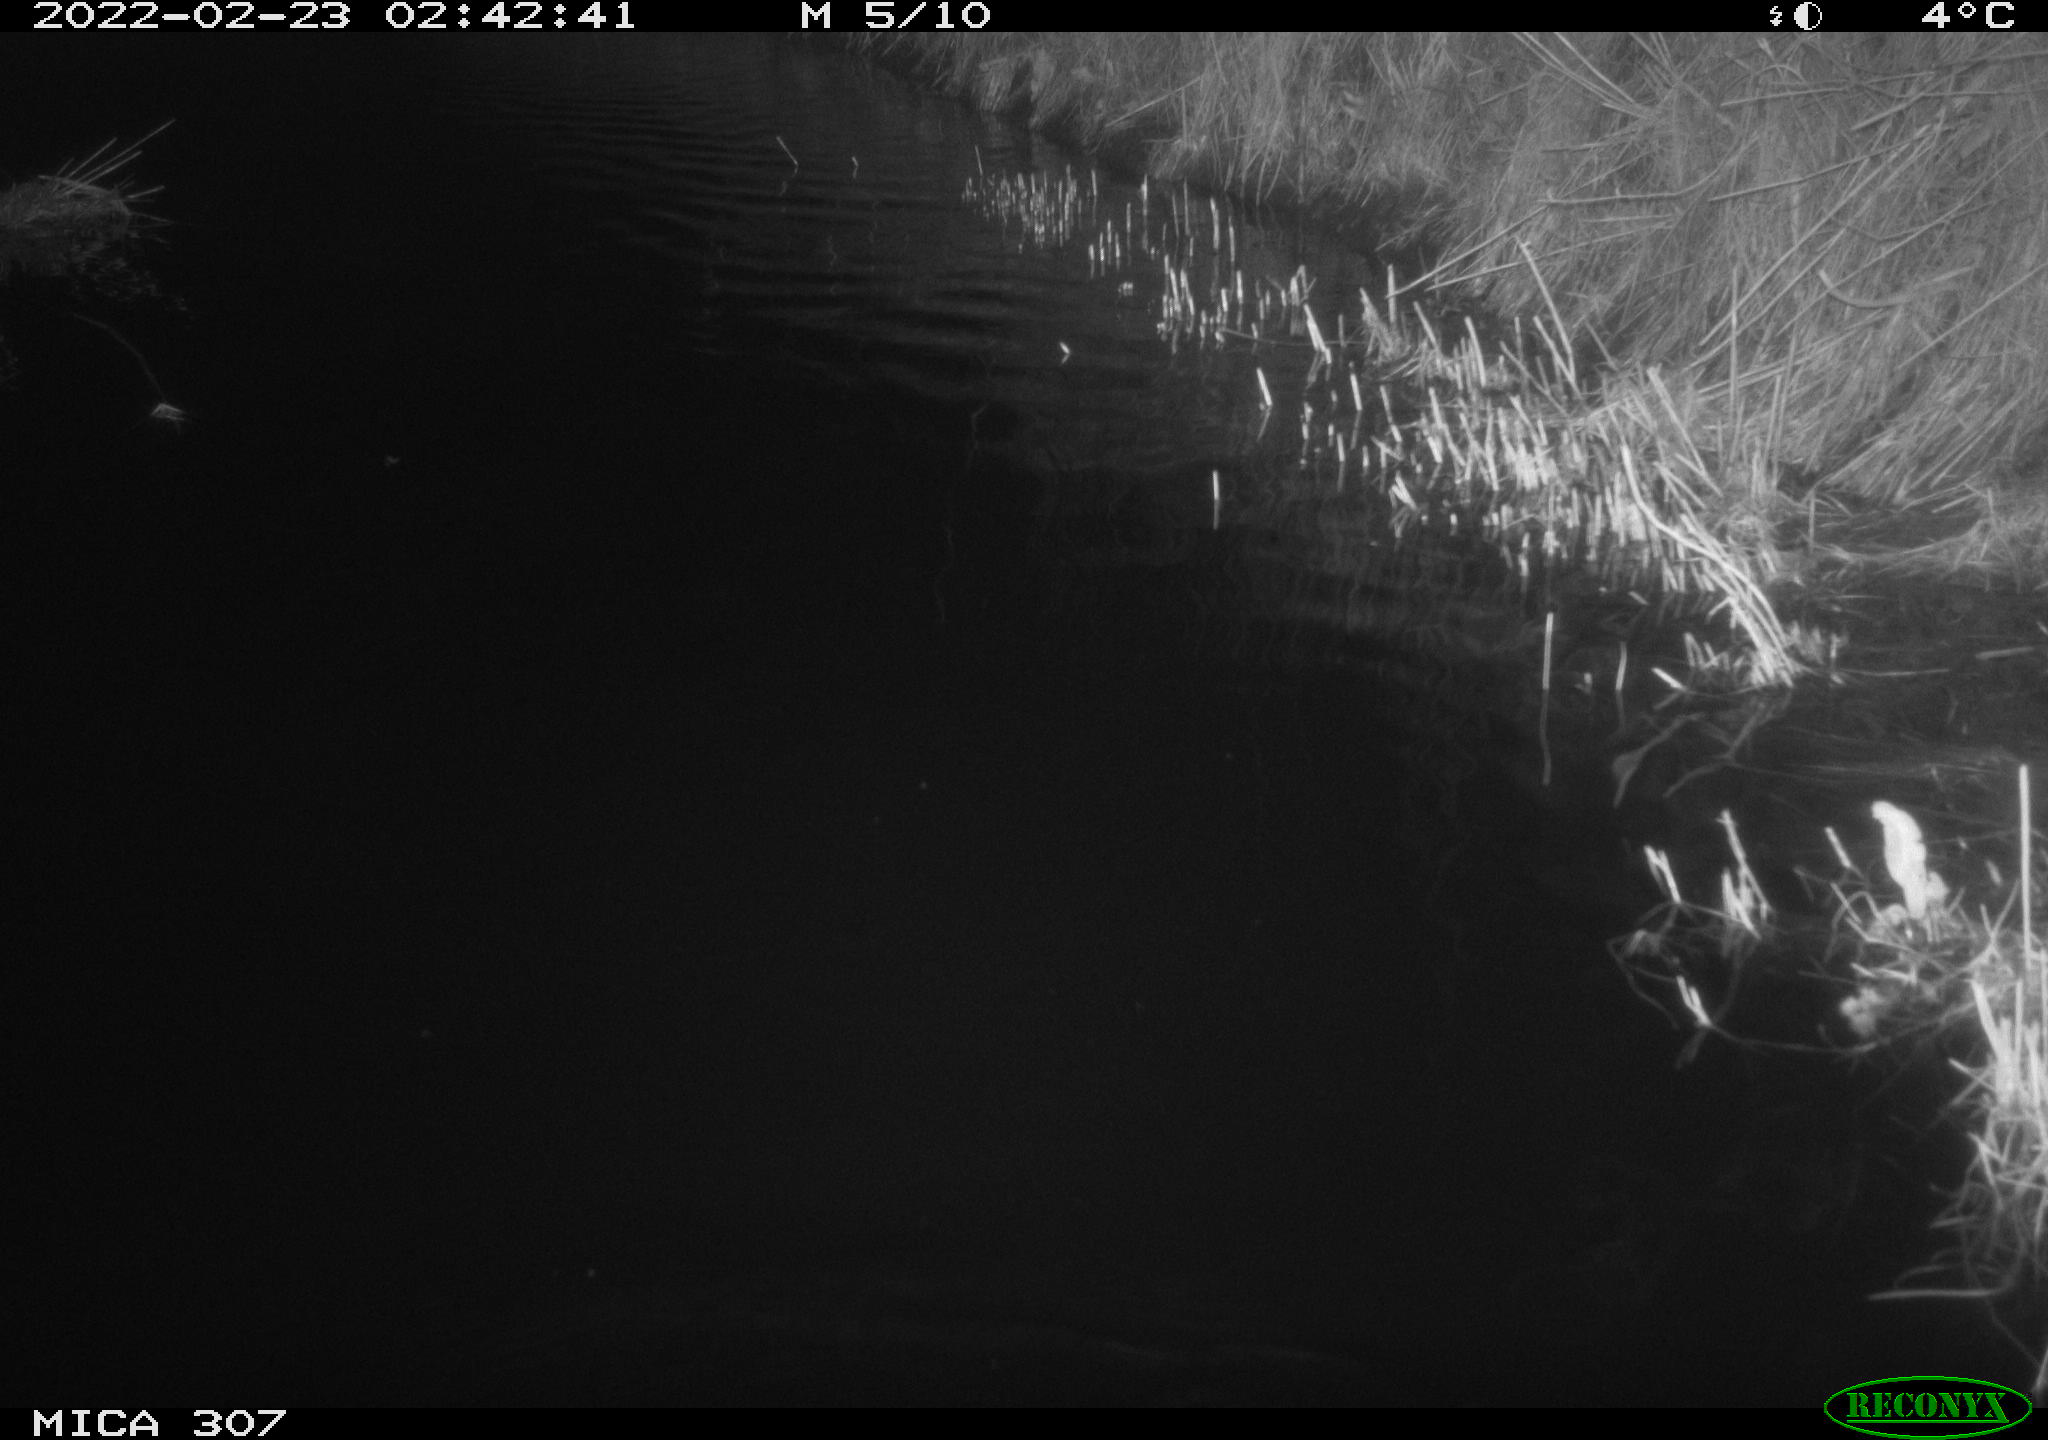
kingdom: Animalia
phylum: Chordata
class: Mammalia
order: Rodentia
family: Cricetidae
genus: Ondatra
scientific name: Ondatra zibethicus
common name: Muskrat
